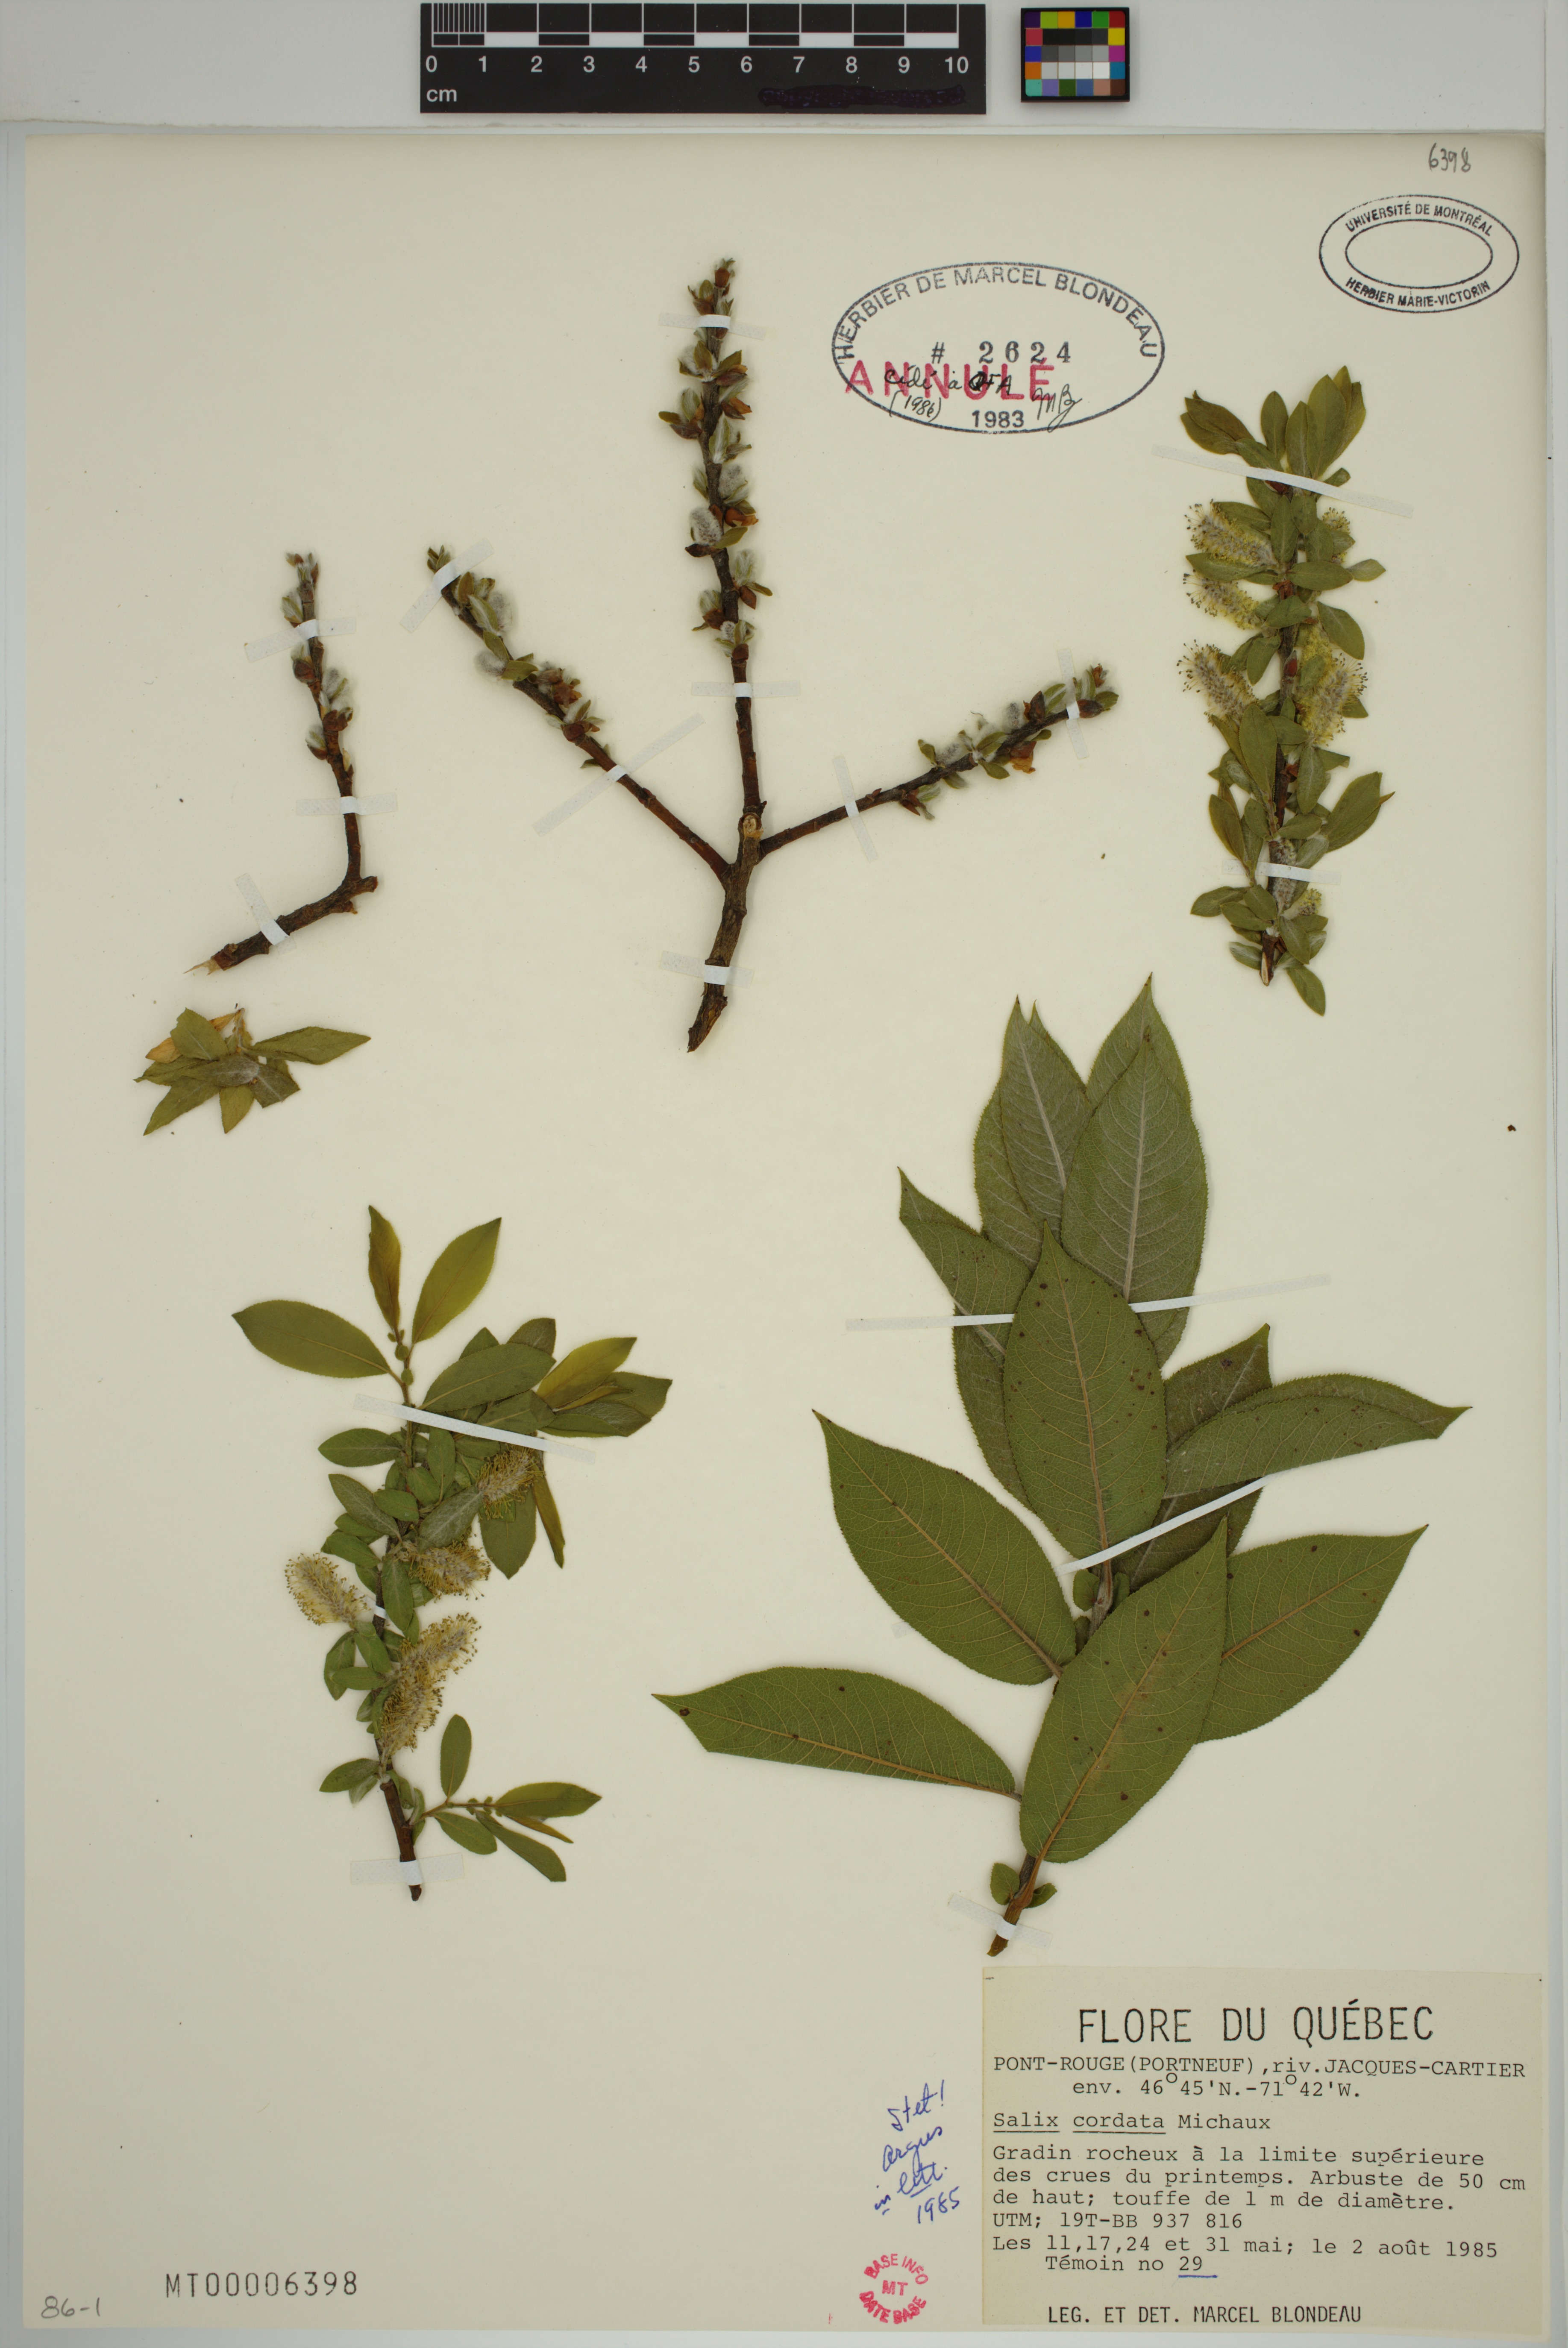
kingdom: Plantae
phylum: Tracheophyta
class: Magnoliopsida
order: Malpighiales
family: Salicaceae
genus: Salix
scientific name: Salix cordata
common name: Heart-leaf willow
